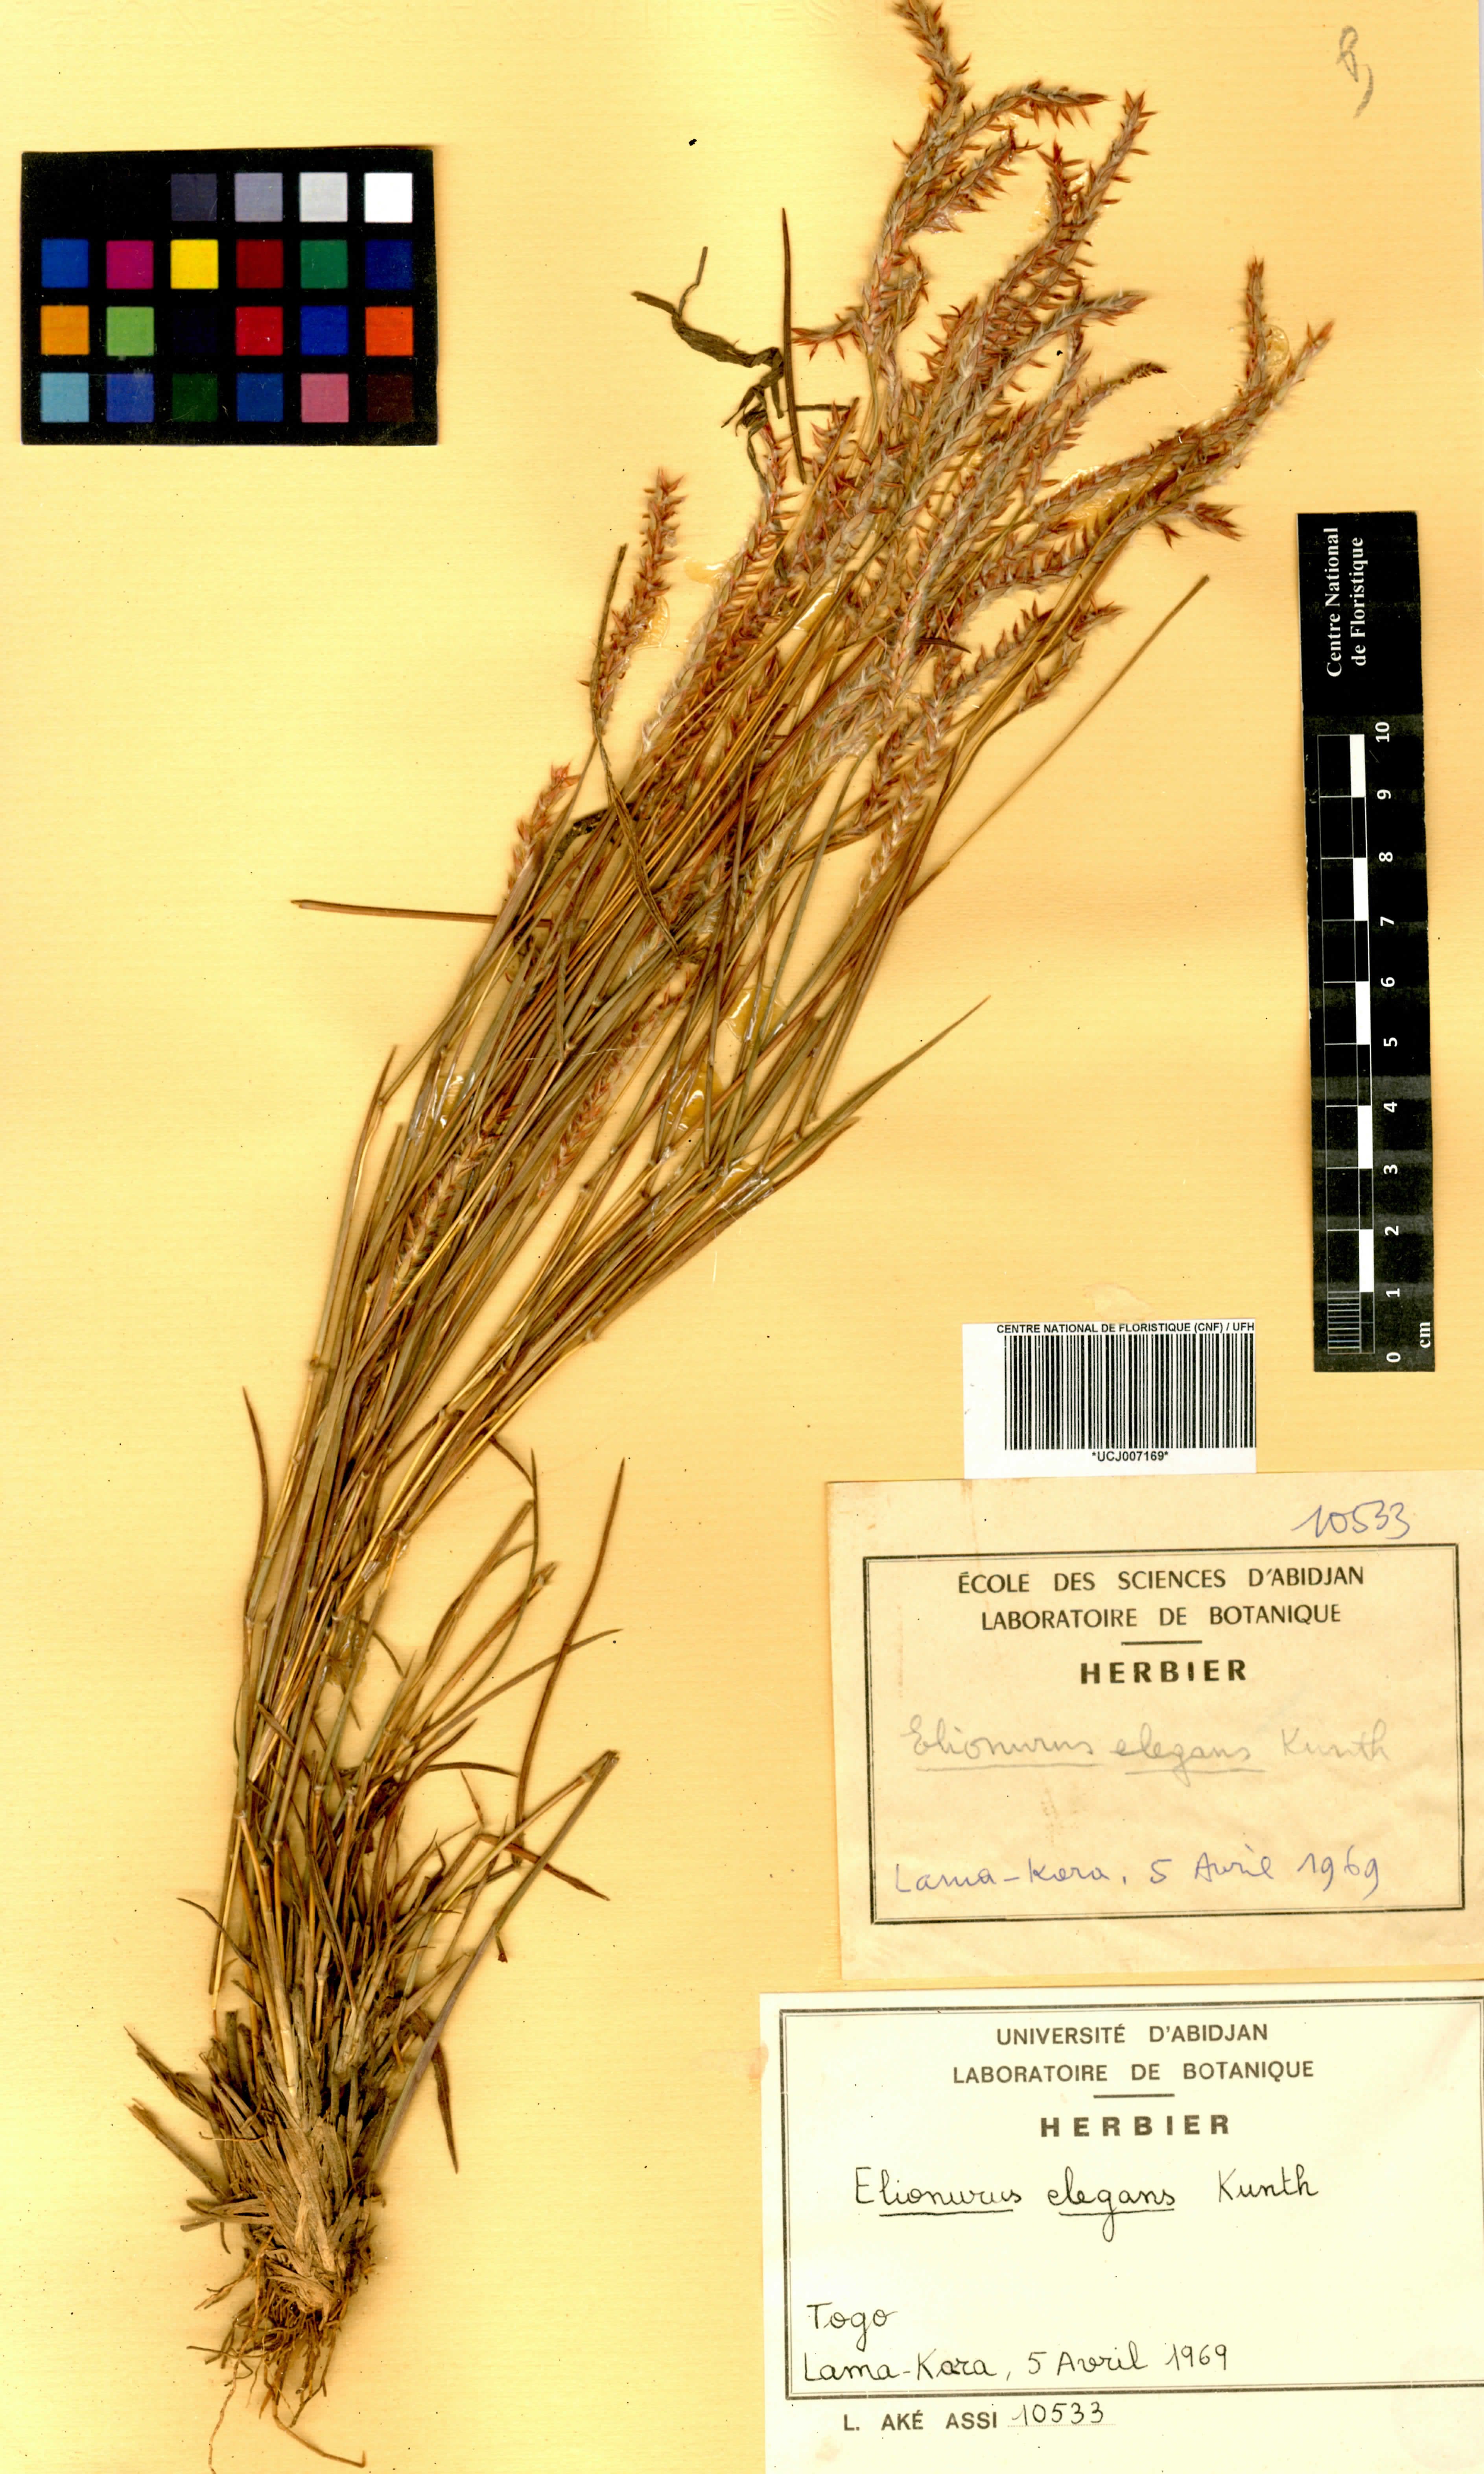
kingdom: Plantae
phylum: Tracheophyta
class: Liliopsida
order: Poales
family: Poaceae
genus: Elionurus
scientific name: Elionurus elegans
